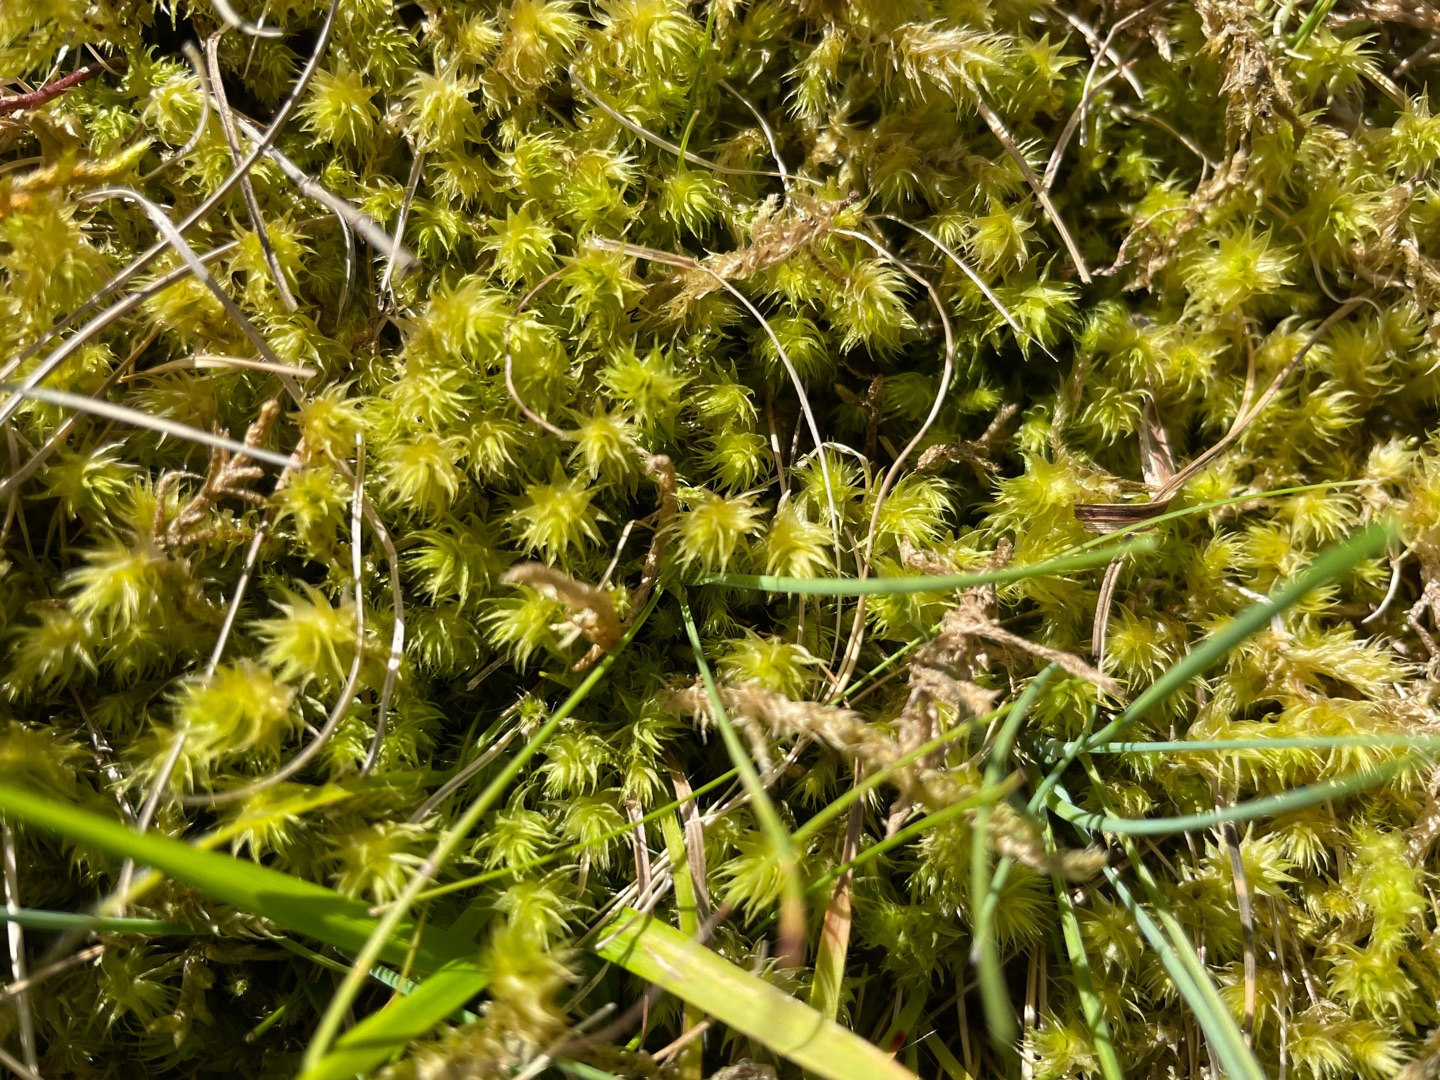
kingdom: Plantae
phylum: Bryophyta
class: Bryopsida
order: Hypnales
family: Hylocomiaceae
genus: Hylocomiadelphus
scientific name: Hylocomiadelphus triquetrus
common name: Stor kransemos
